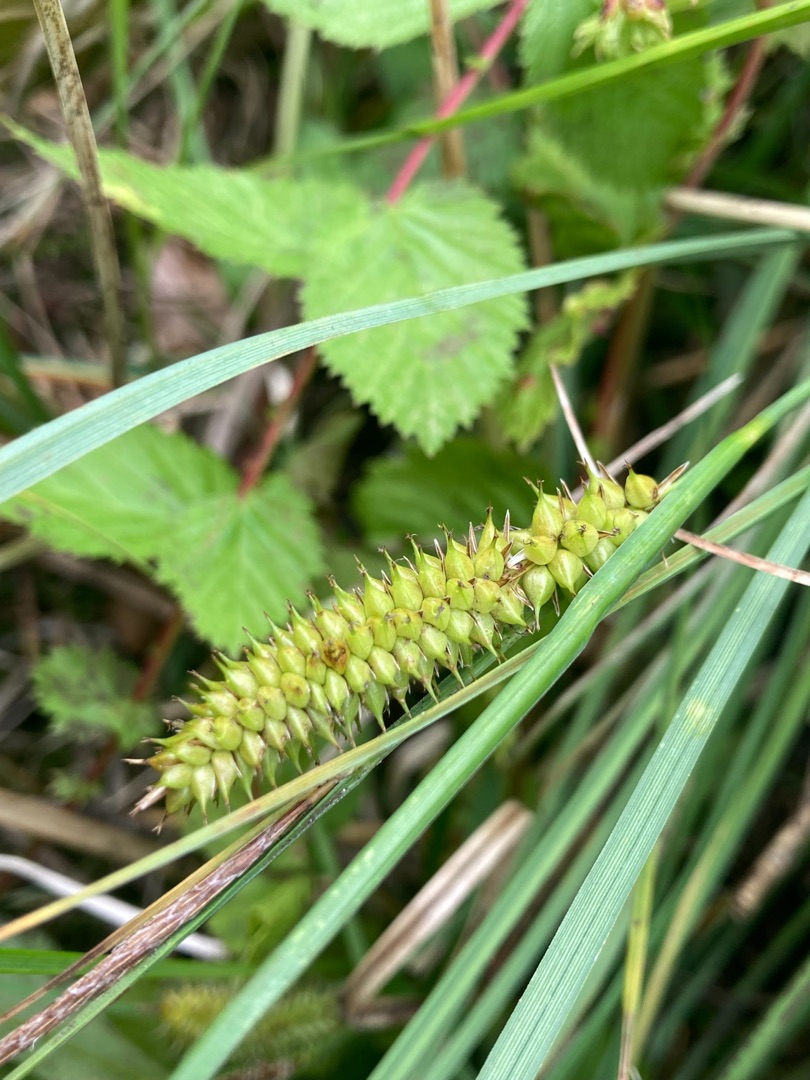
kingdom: Plantae
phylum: Tracheophyta
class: Liliopsida
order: Poales
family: Cyperaceae
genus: Carex
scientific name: Carex rostrata
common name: Næb-star
